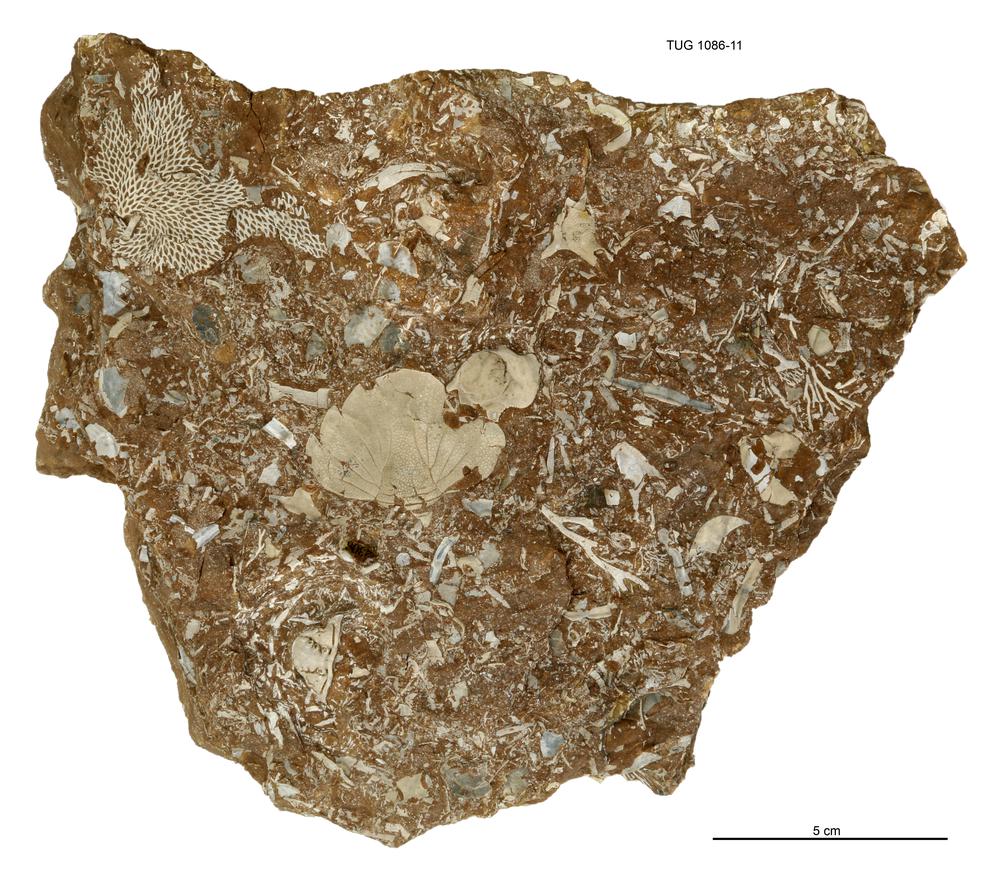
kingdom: Animalia
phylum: Arthropoda
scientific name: Arthropoda
